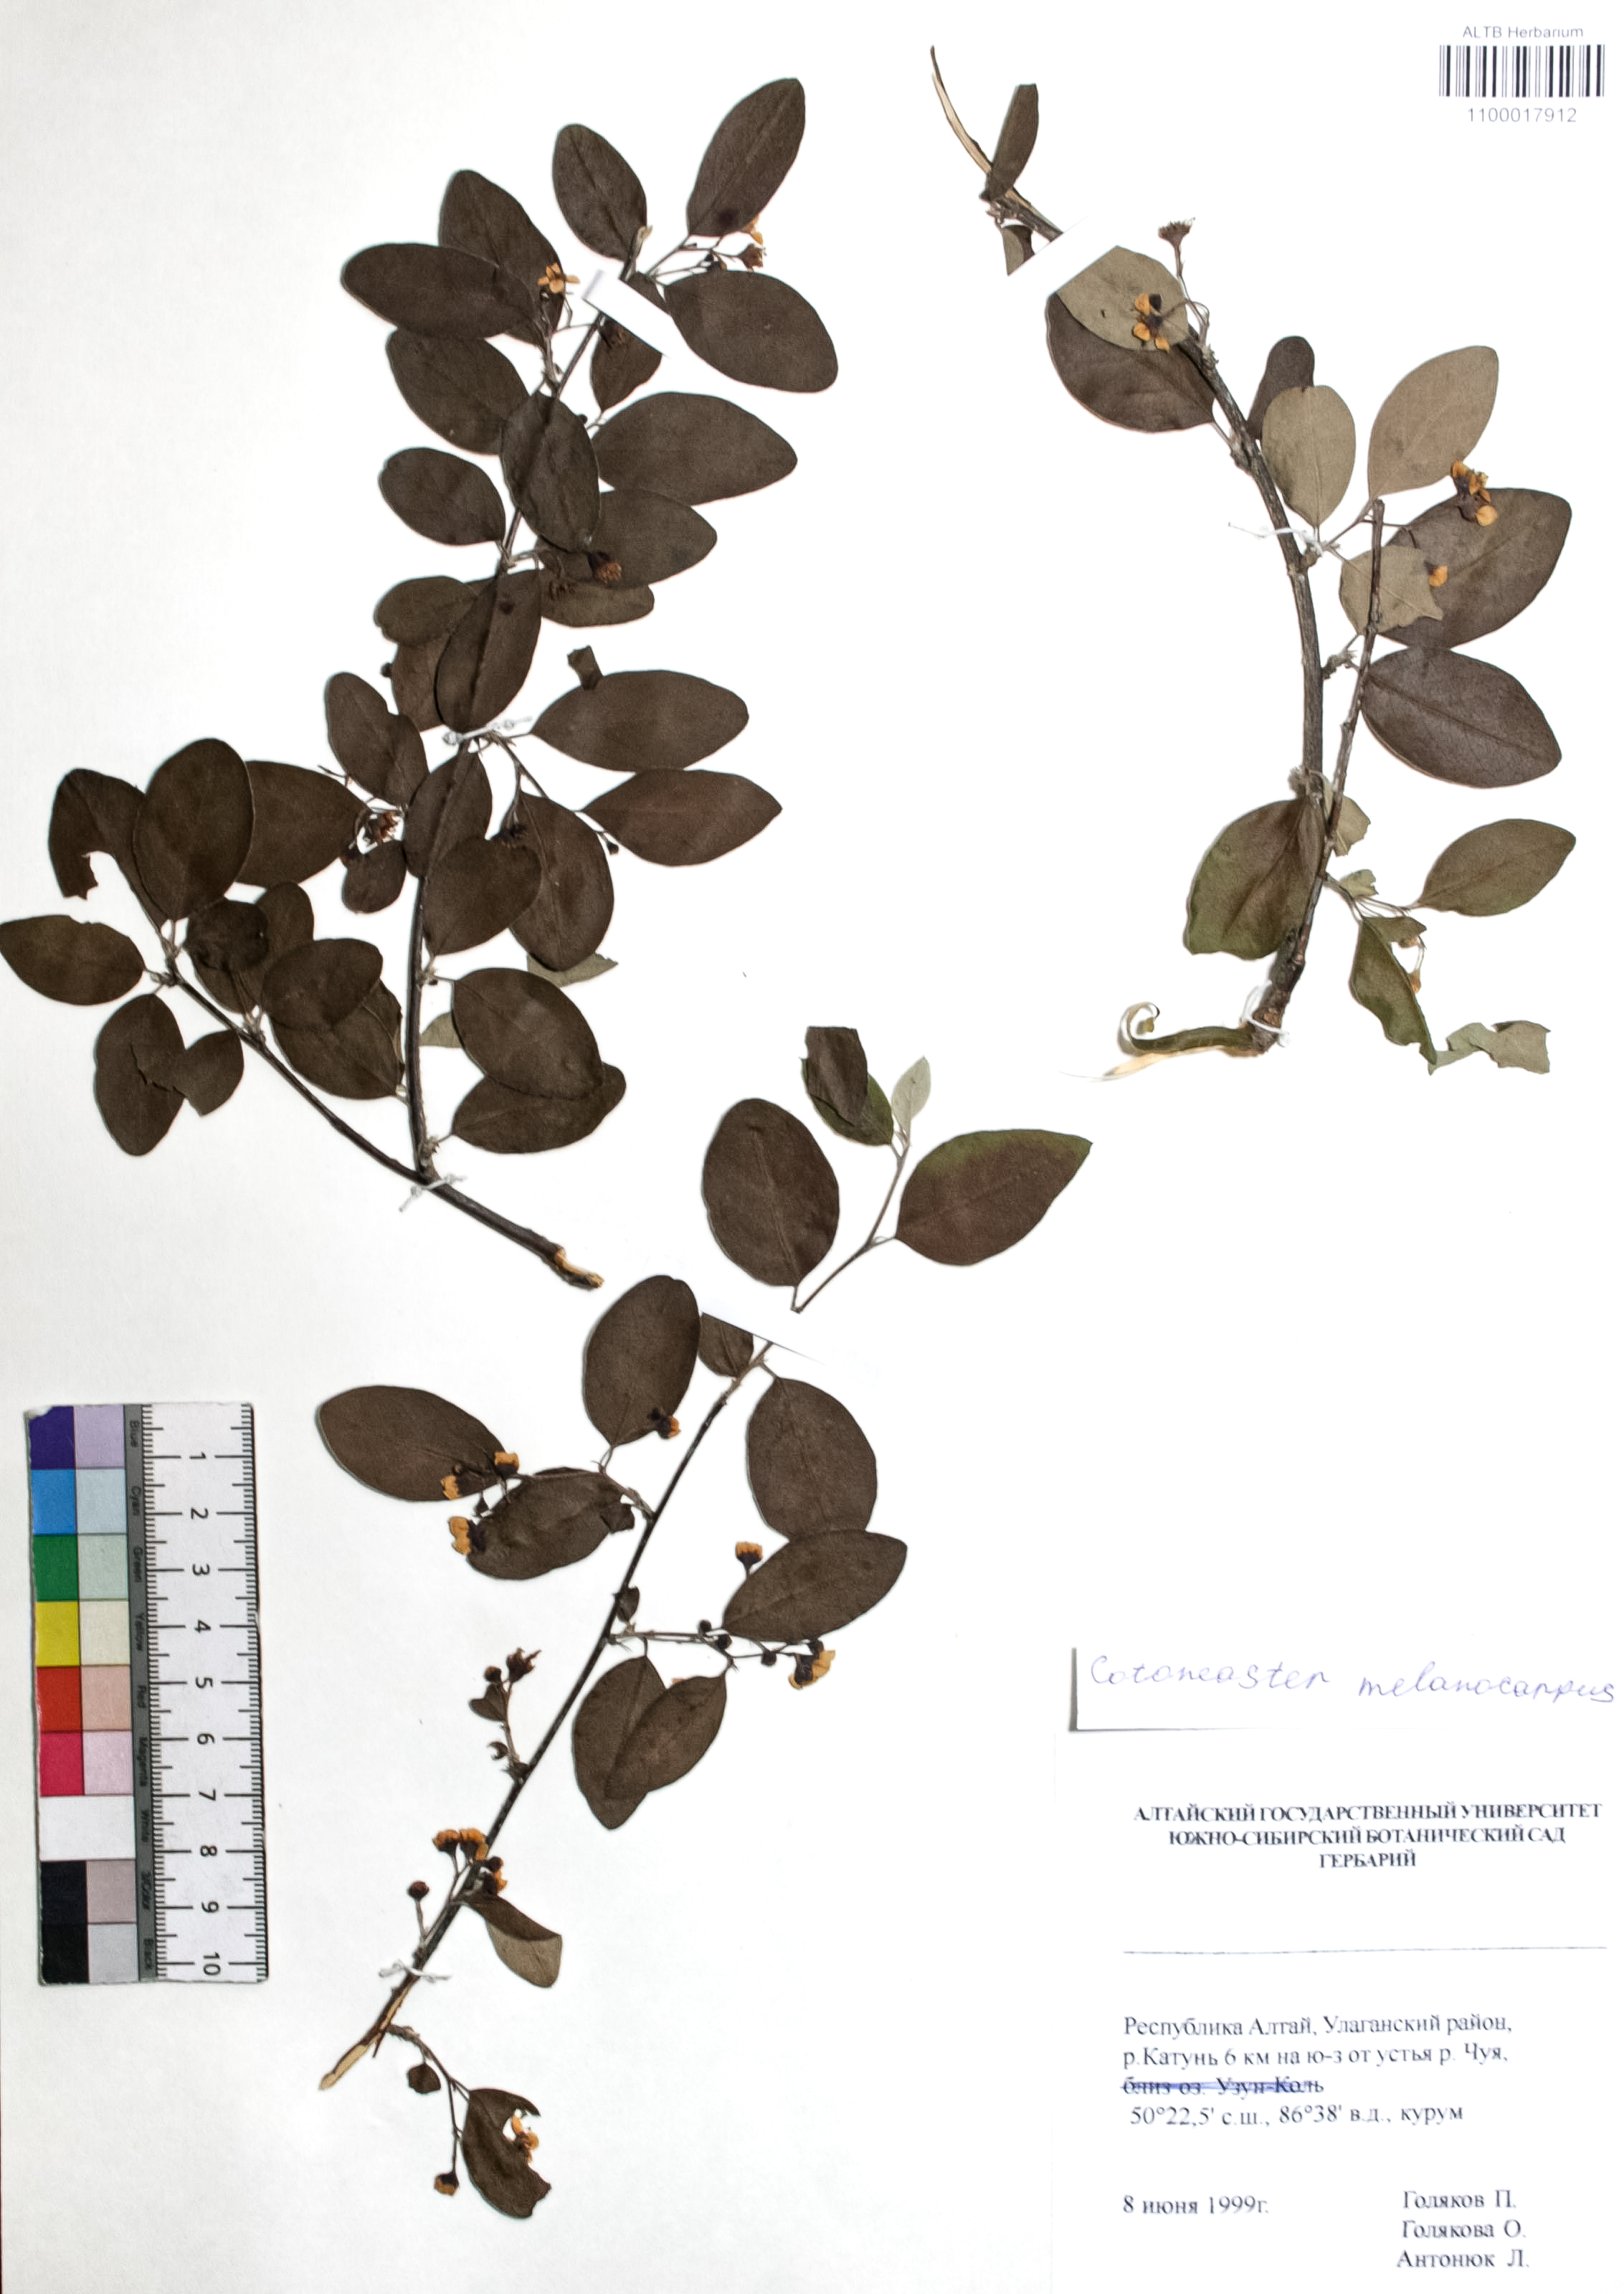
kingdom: Plantae
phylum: Tracheophyta
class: Magnoliopsida
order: Rosales
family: Rosaceae
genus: Cotoneaster
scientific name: Cotoneaster niger
